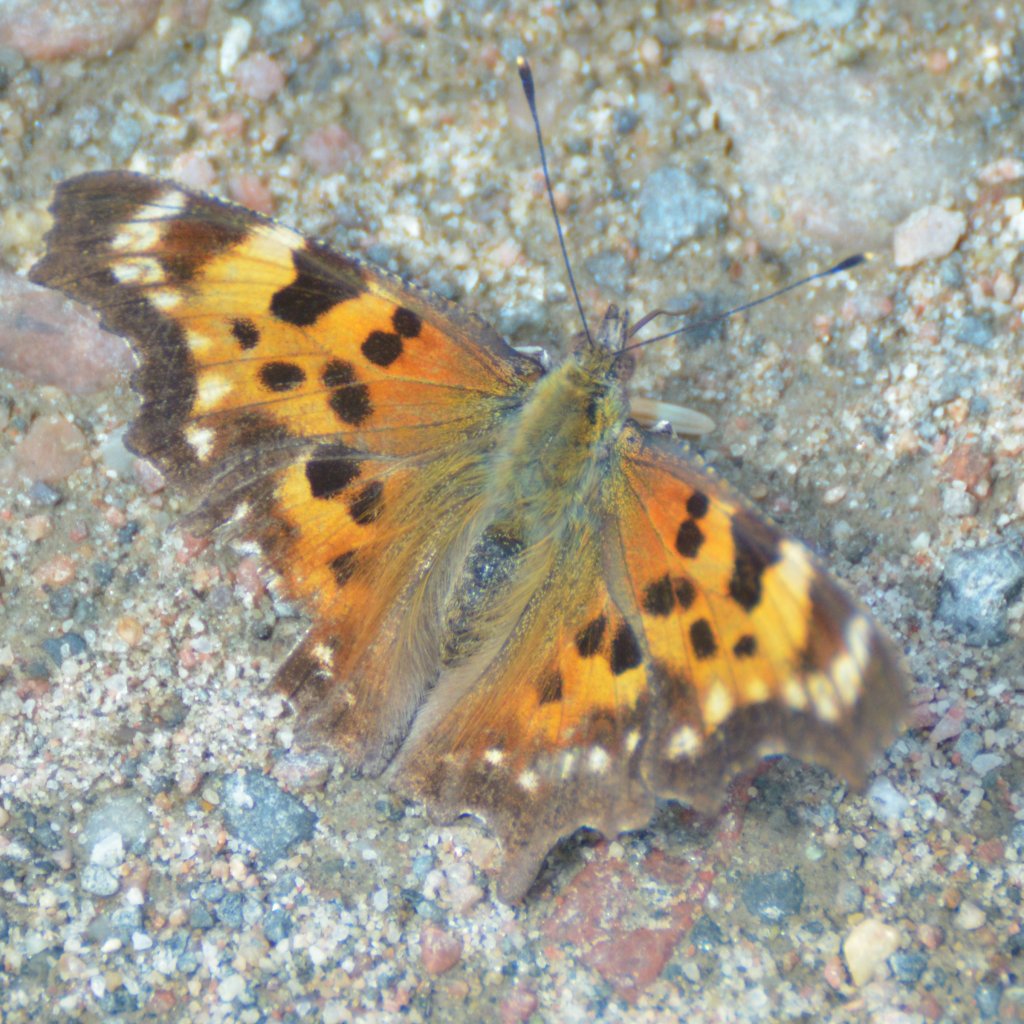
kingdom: Animalia
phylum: Arthropoda
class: Insecta
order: Lepidoptera
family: Nymphalidae
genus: Polygonia
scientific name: Polygonia faunus
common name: Green Comma
